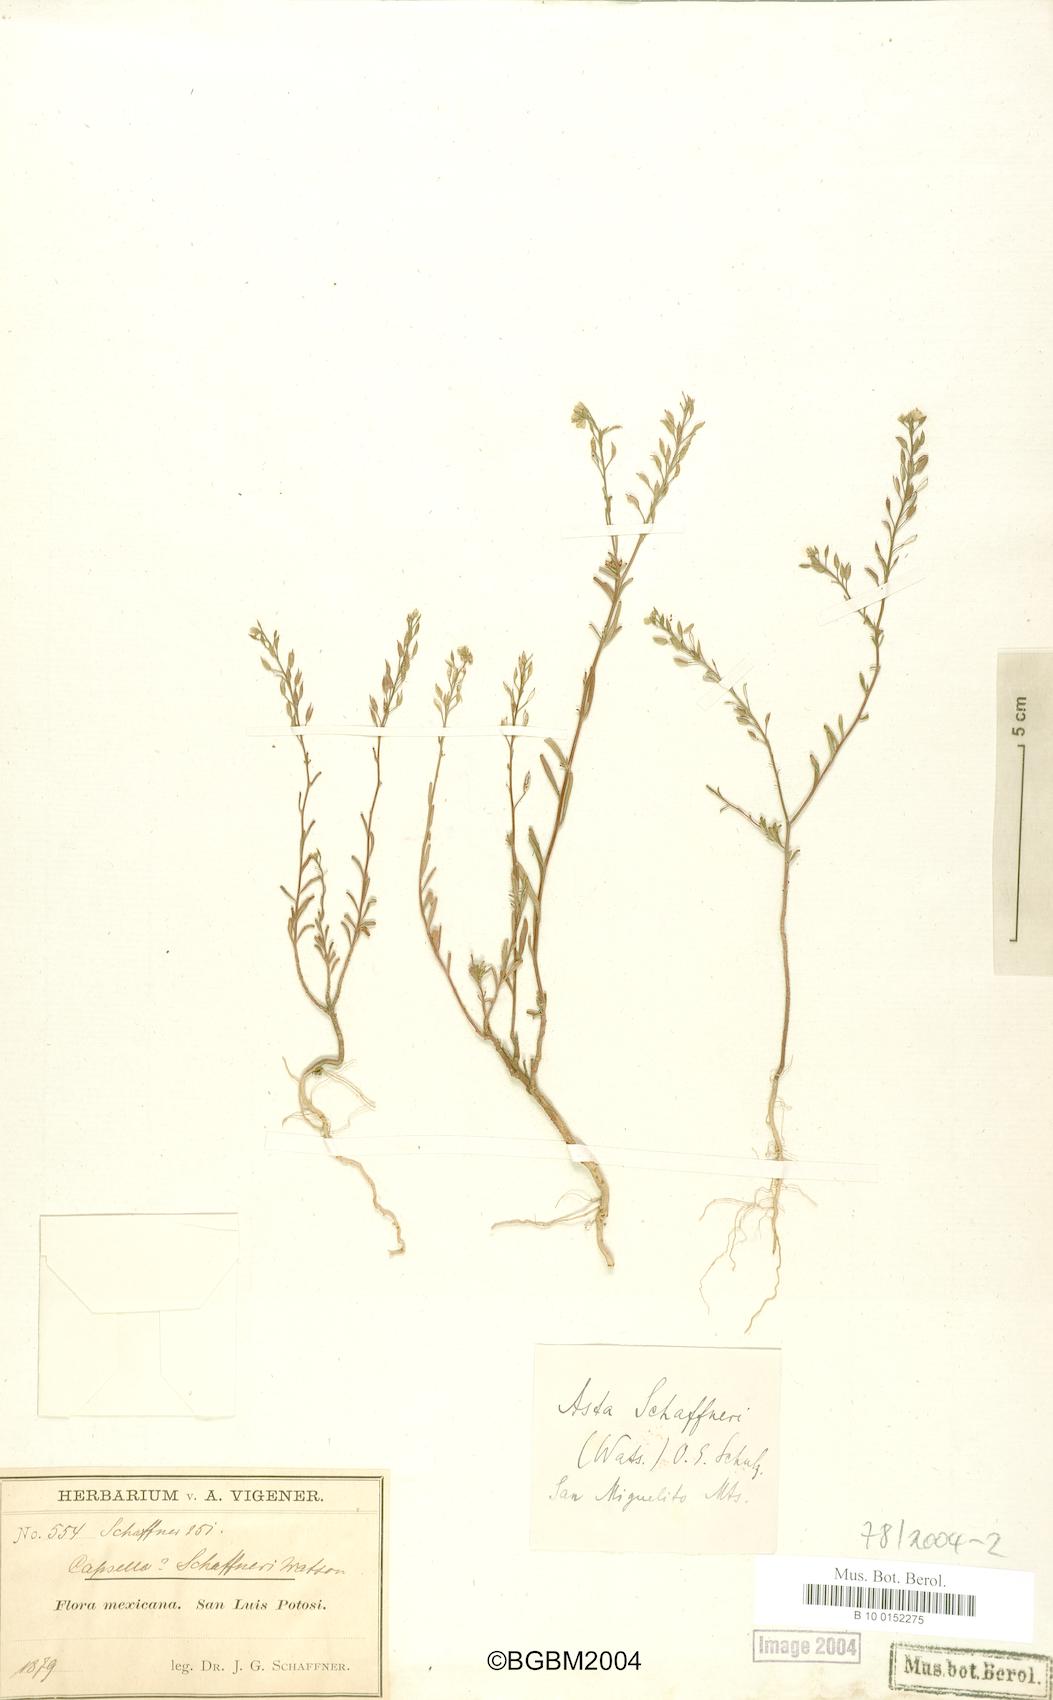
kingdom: Plantae
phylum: Tracheophyta
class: Magnoliopsida
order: Brassicales
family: Brassicaceae
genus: Asta
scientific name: Asta schaffneri
